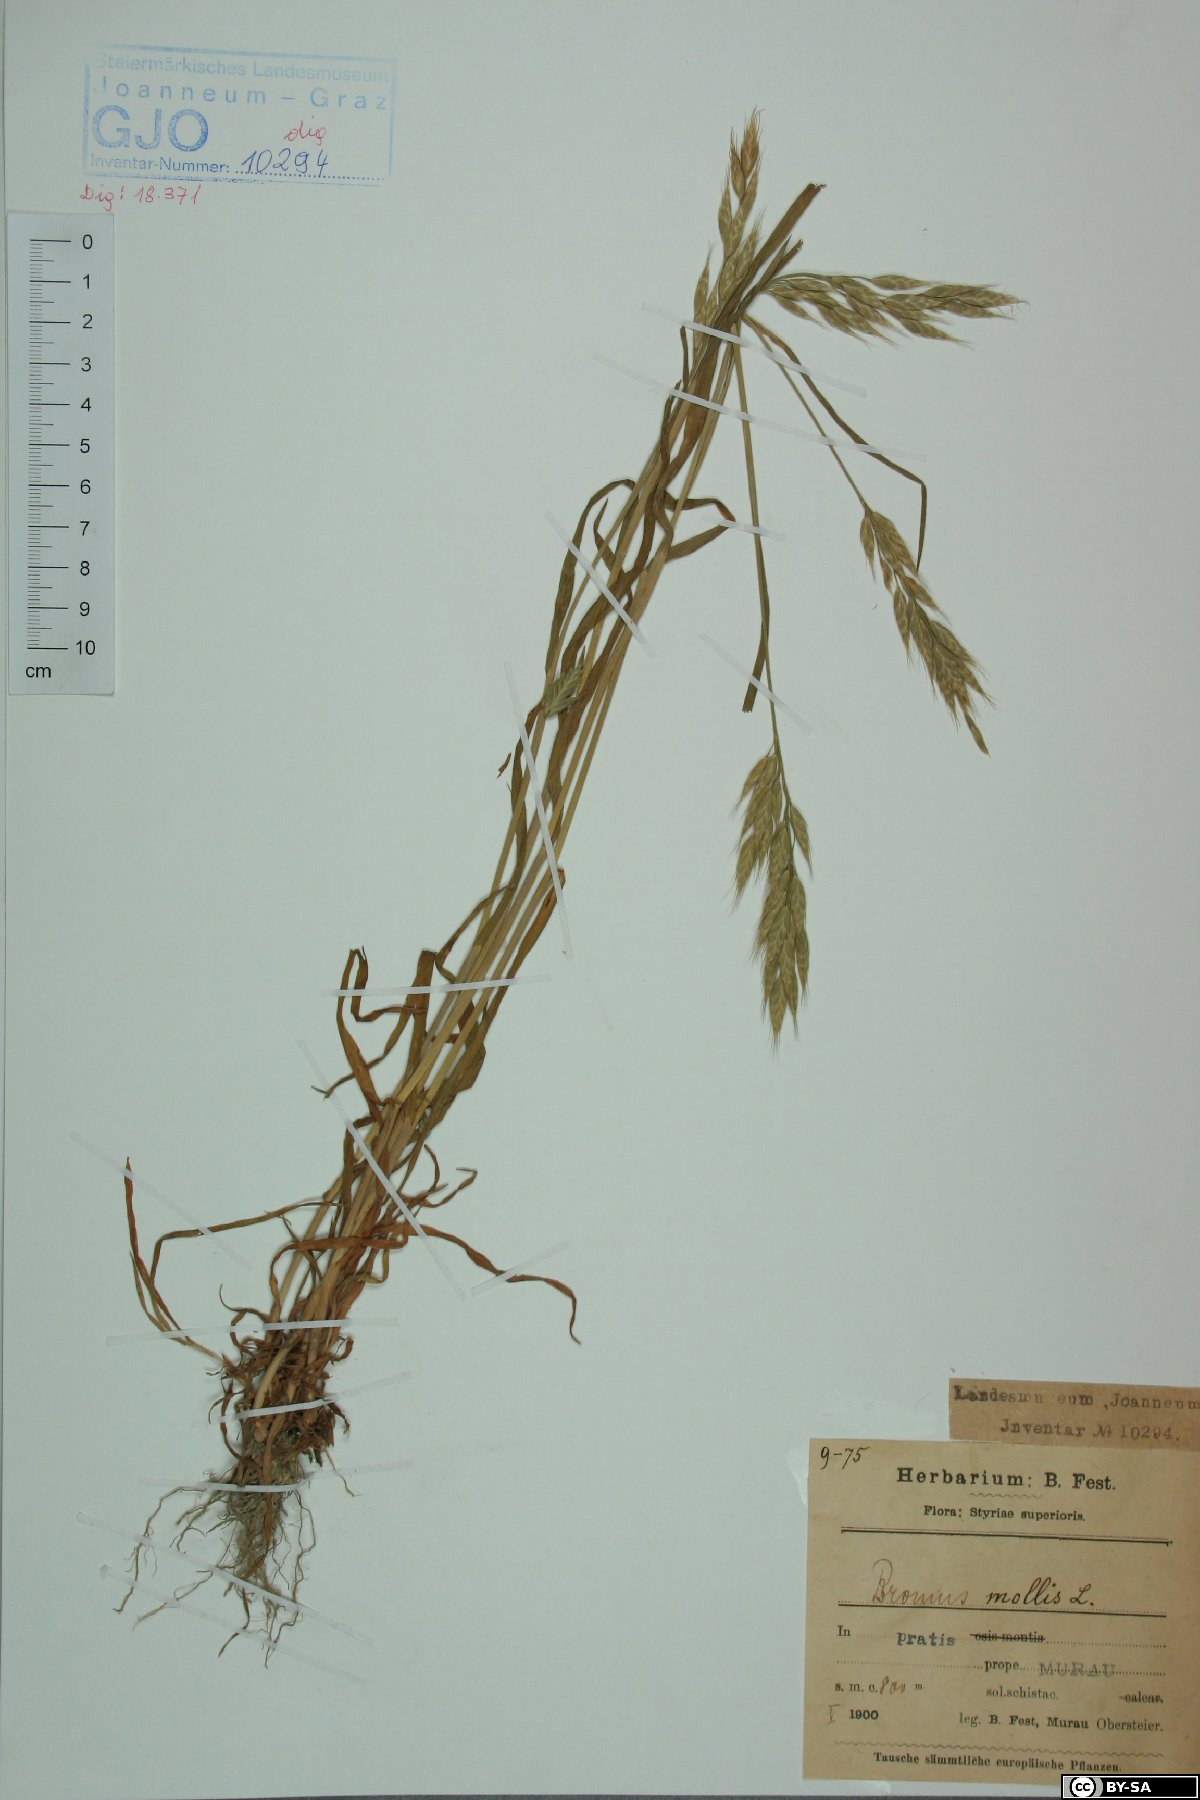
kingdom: Plantae
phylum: Tracheophyta
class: Liliopsida
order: Poales
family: Poaceae
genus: Bromus
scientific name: Bromus hordeaceus
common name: Soft brome
